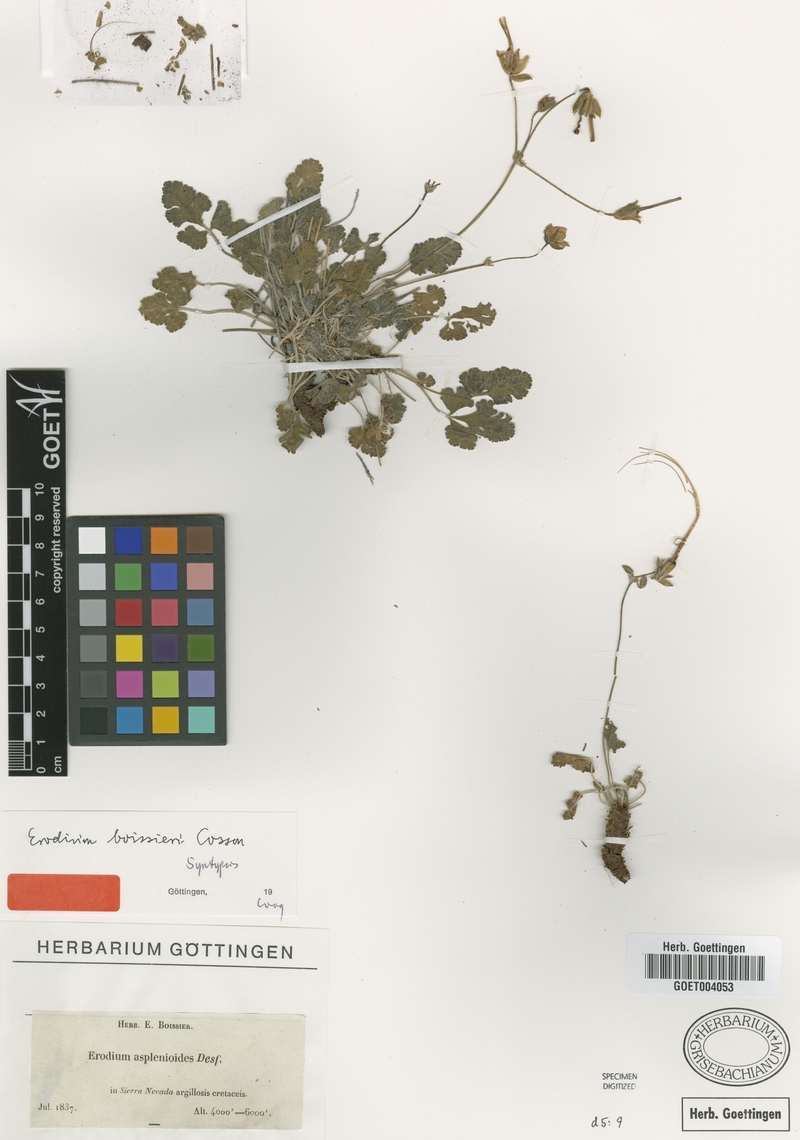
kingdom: Plantae
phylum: Tracheophyta
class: Magnoliopsida
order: Geraniales
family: Geraniaceae
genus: Erodium
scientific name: Erodium boissieri
